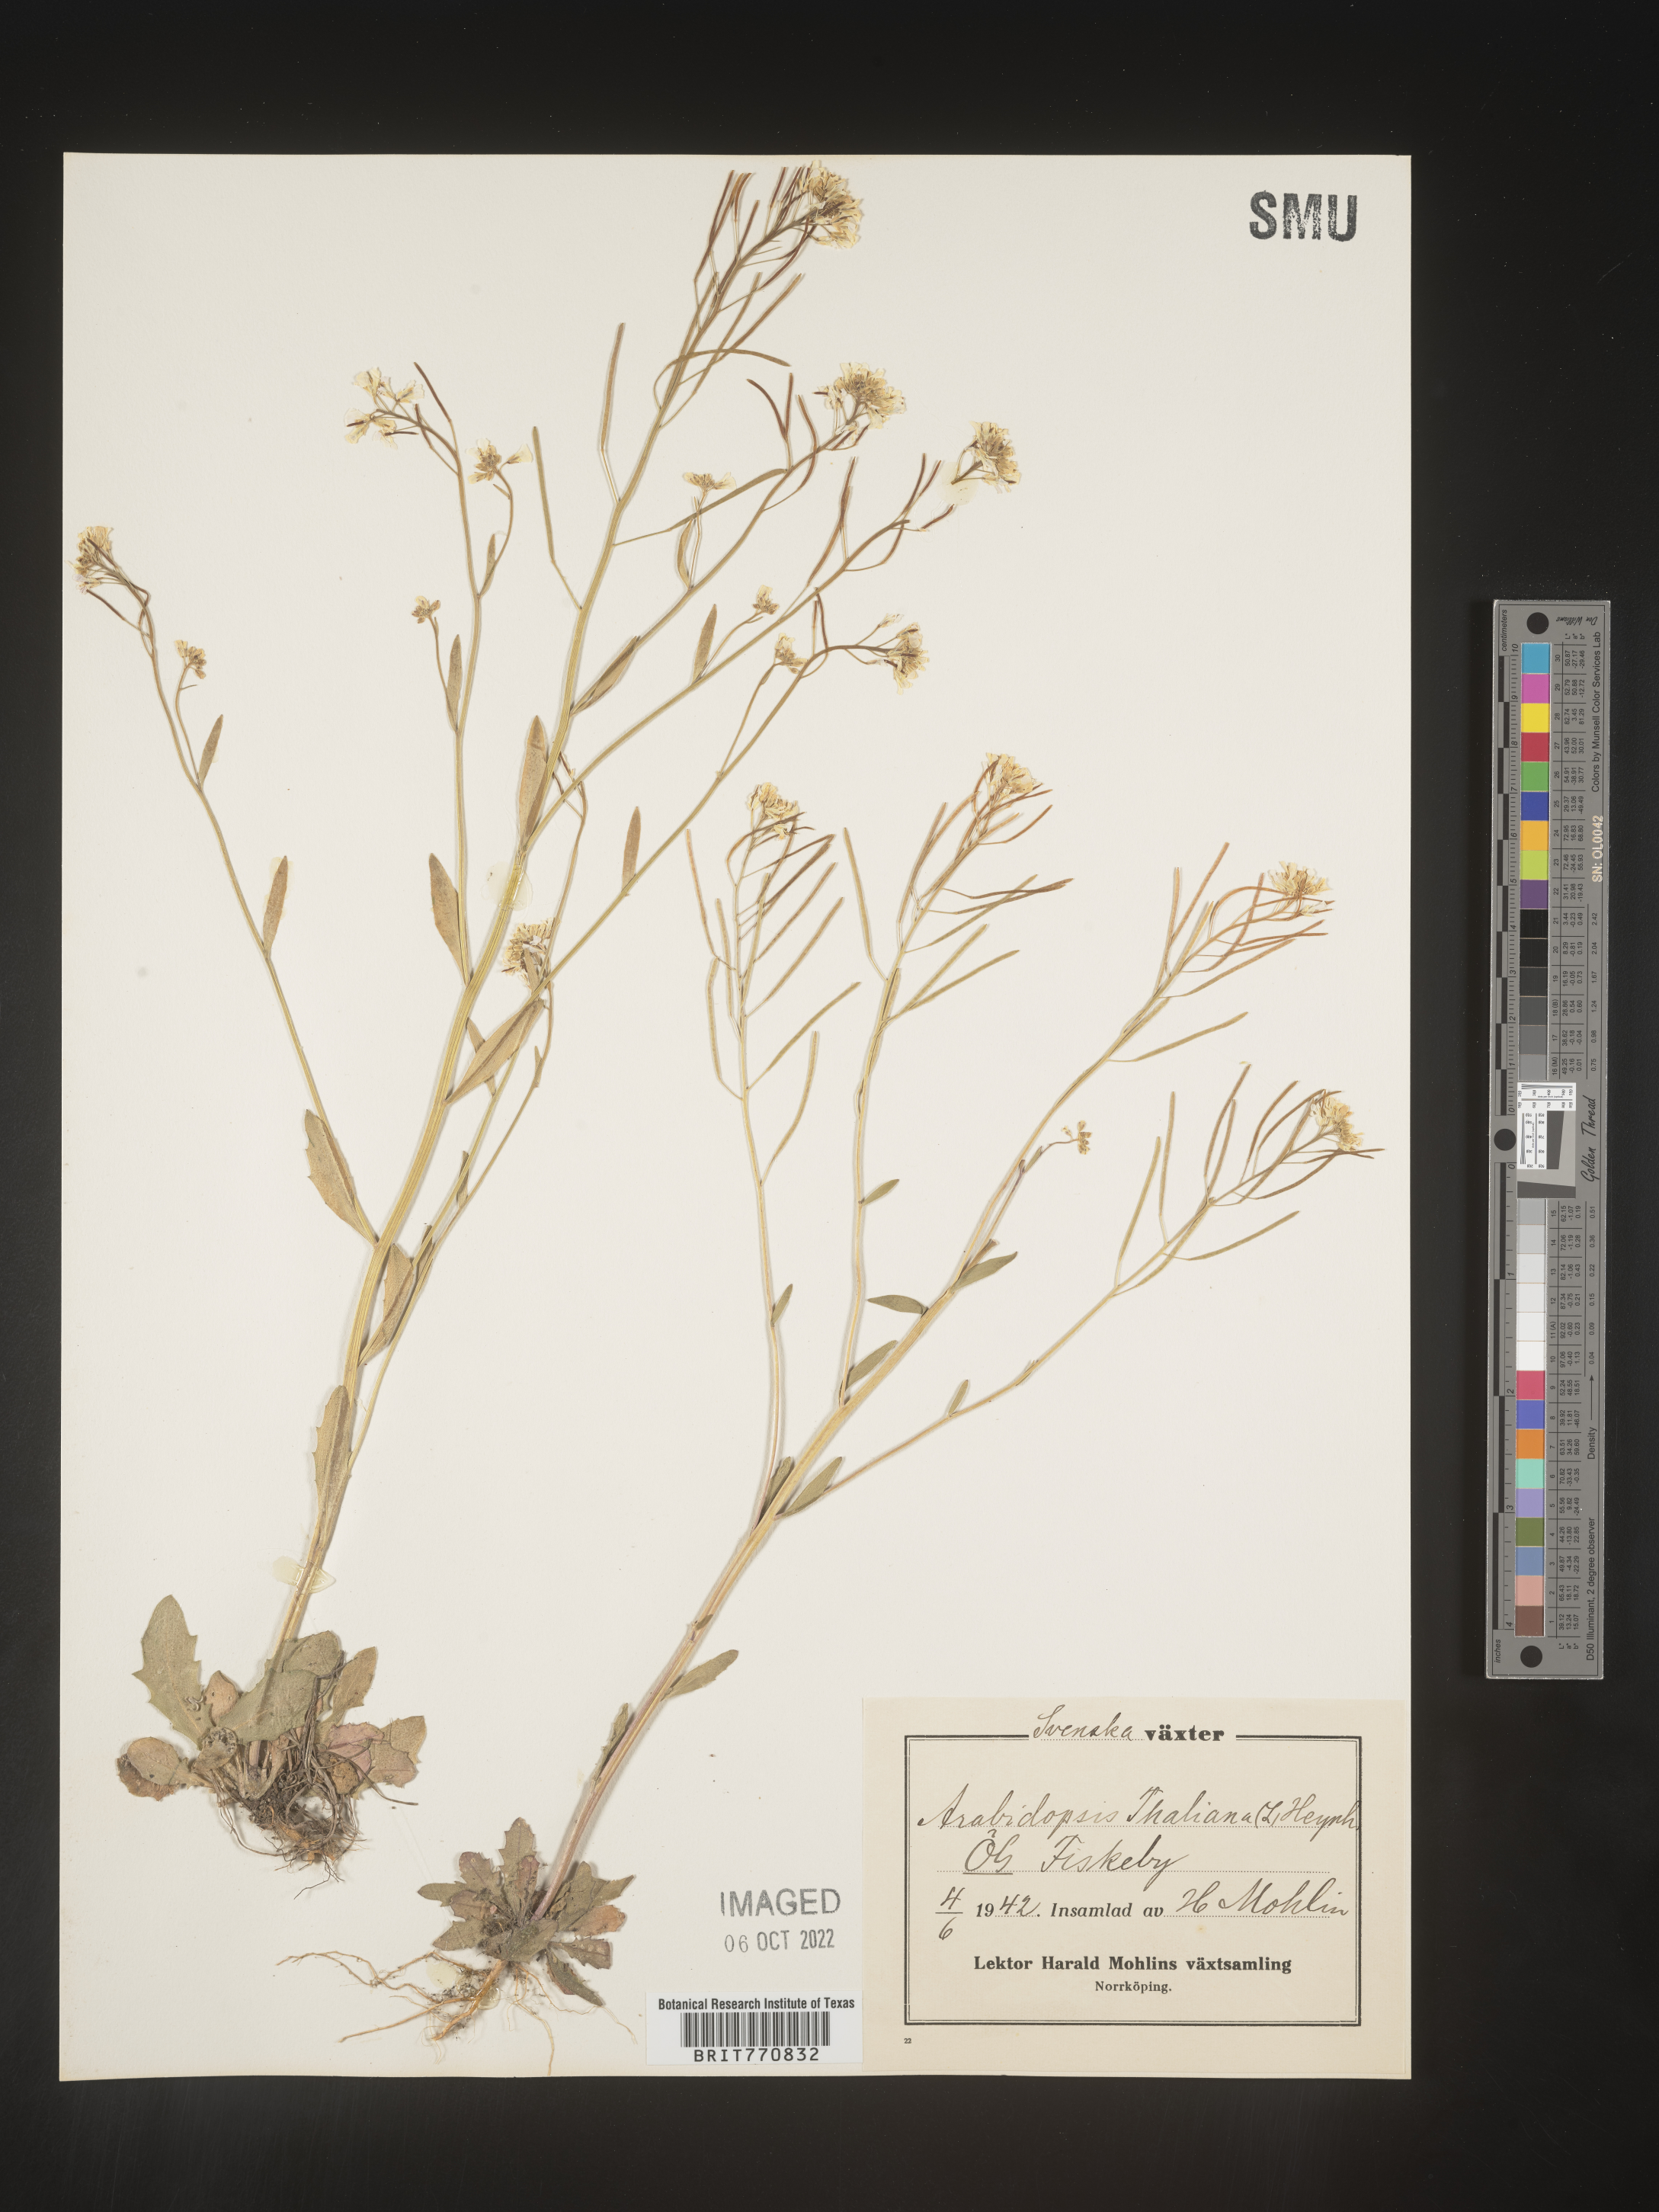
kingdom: Plantae
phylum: Tracheophyta
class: Magnoliopsida
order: Brassicales
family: Brassicaceae
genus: Arabidopsis
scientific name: Arabidopsis
